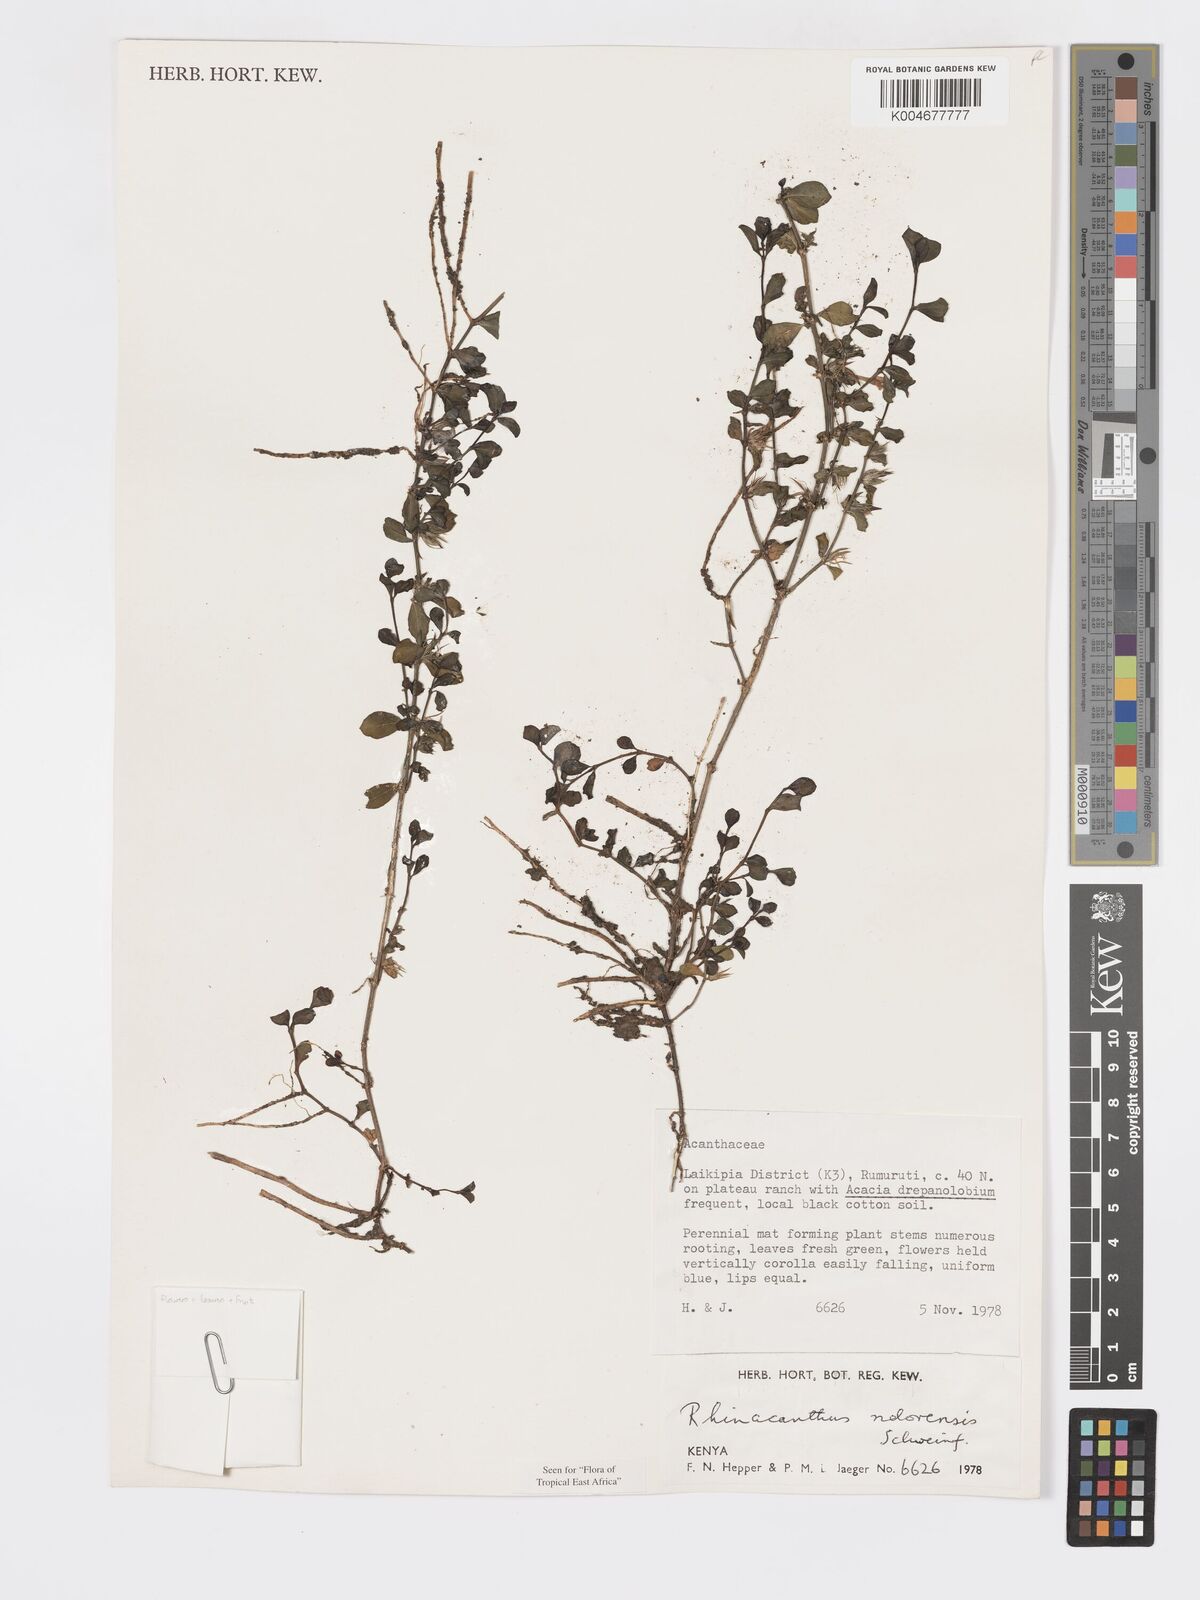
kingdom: Plantae
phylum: Tracheophyta
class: Magnoliopsida
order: Lamiales
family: Acanthaceae
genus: Kenyacanthus
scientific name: Kenyacanthus ndorensis
